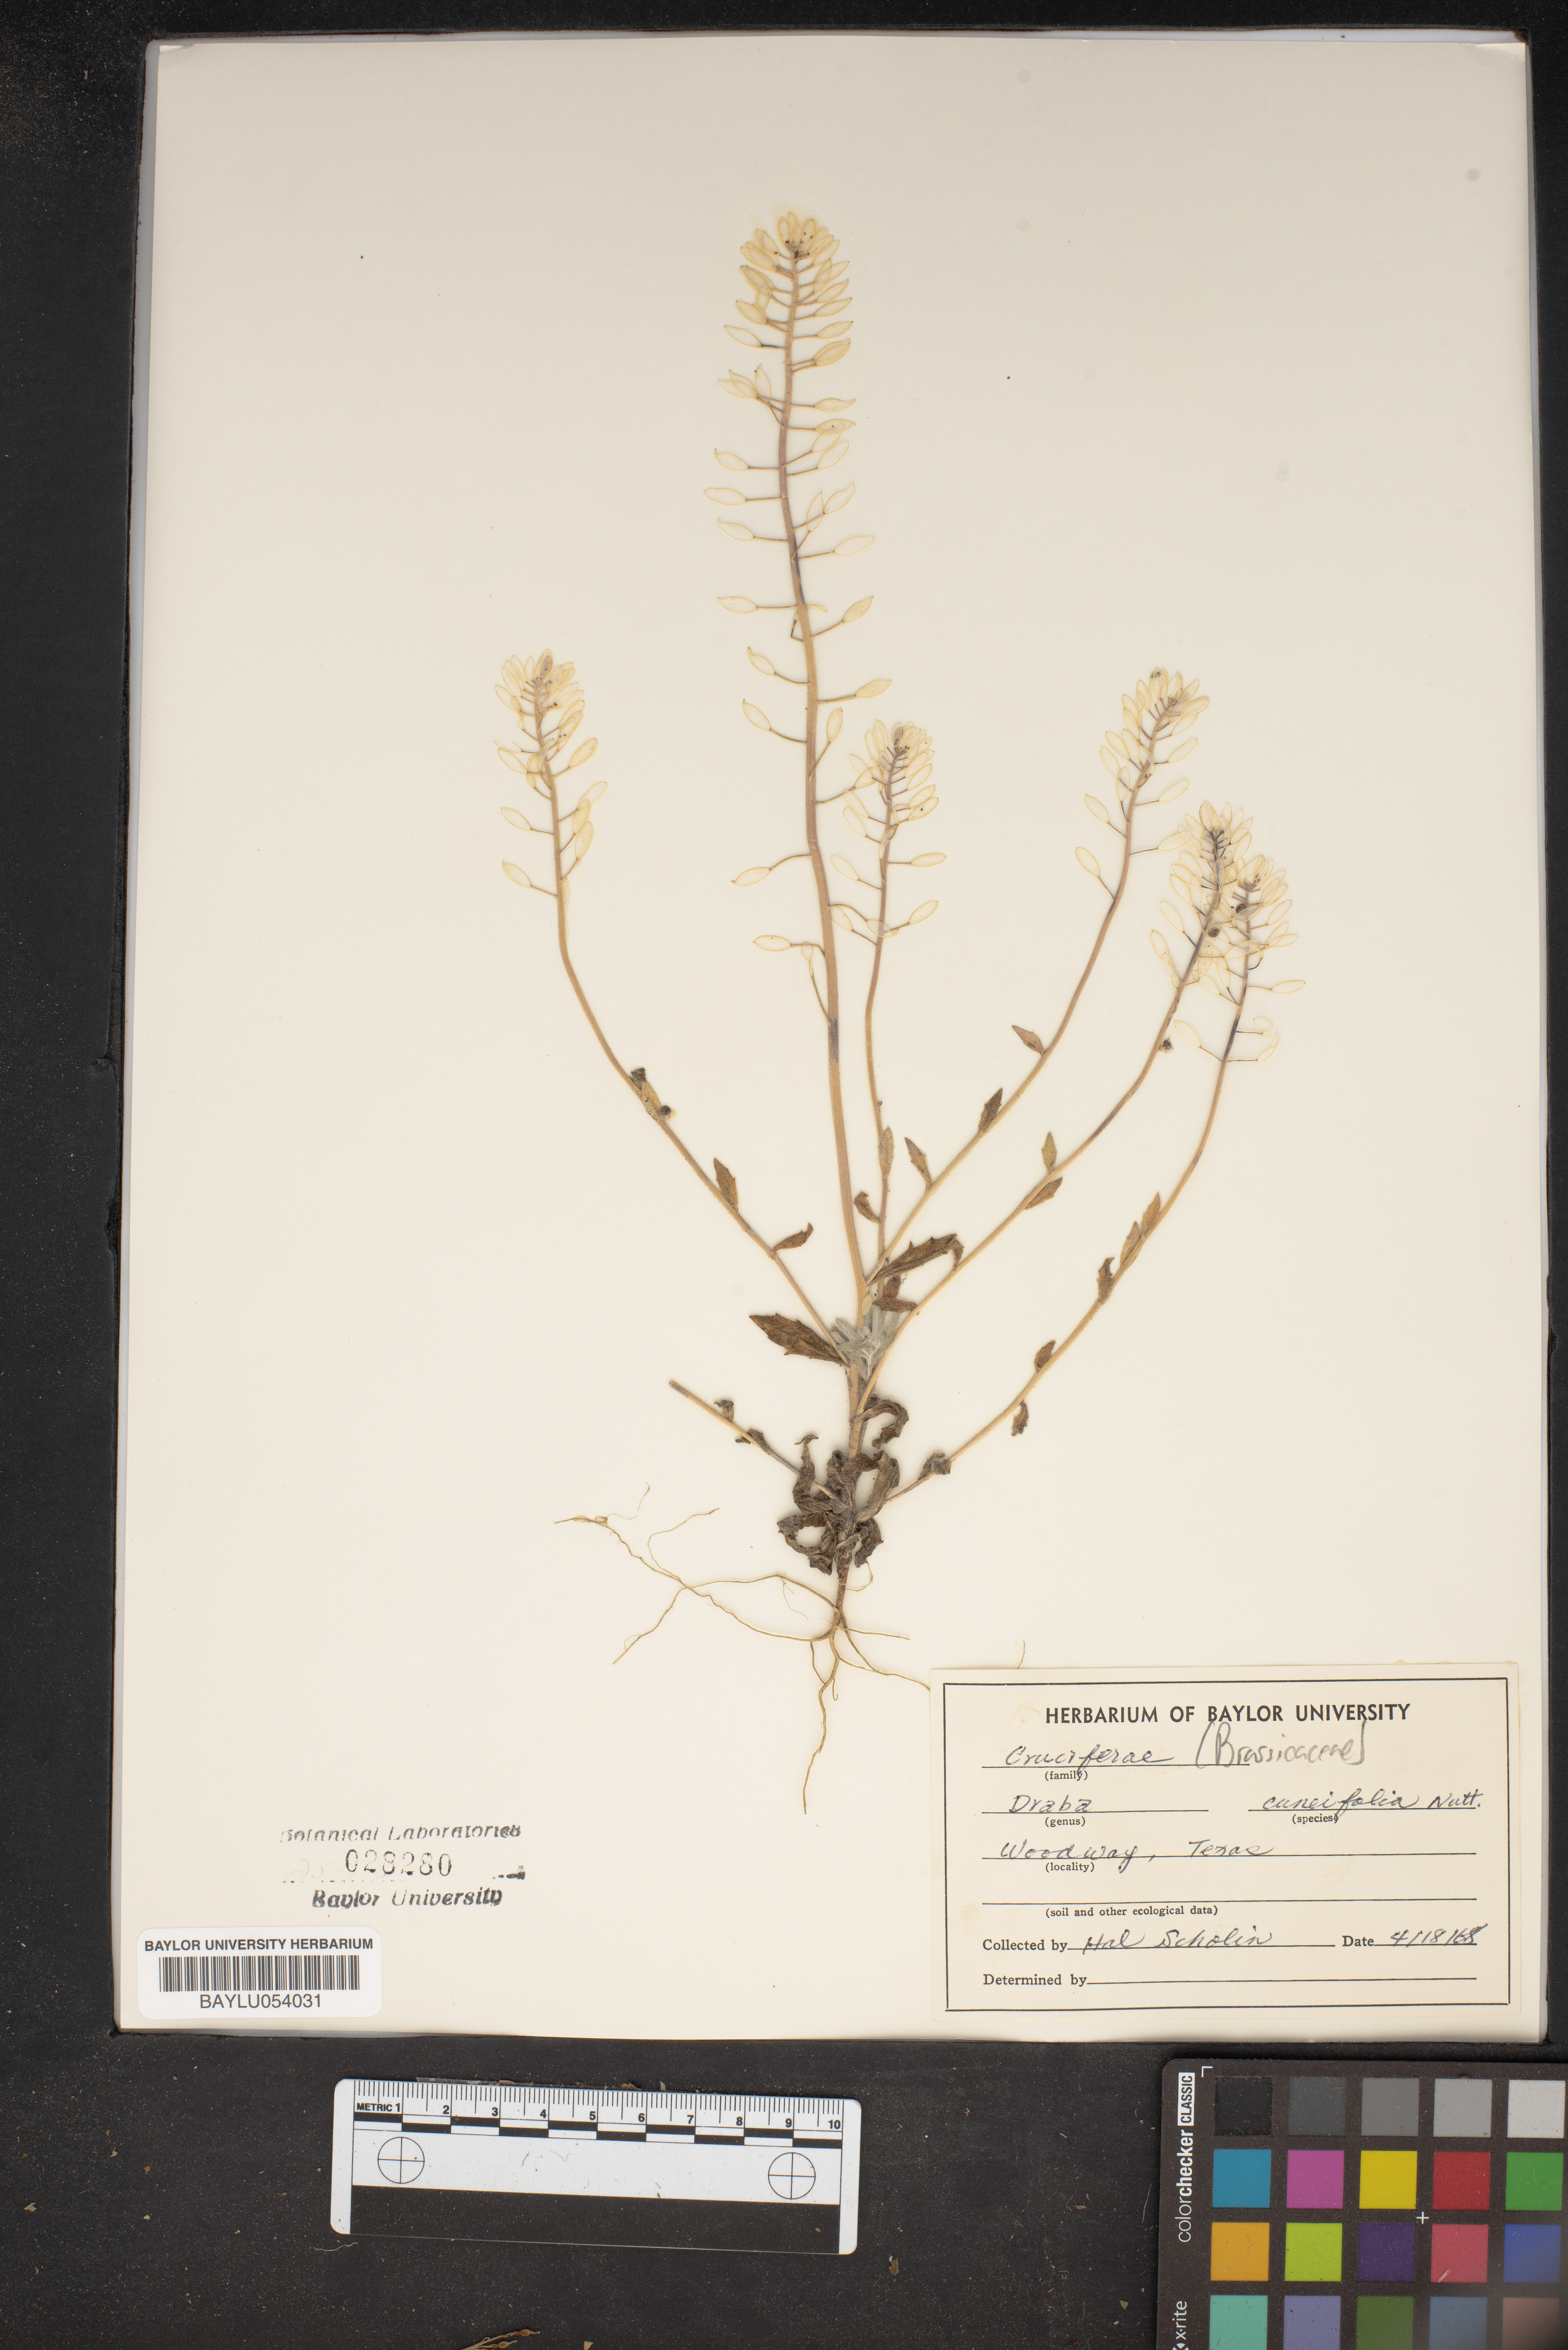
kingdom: Plantae
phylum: Tracheophyta
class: Magnoliopsida
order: Brassicales
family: Brassicaceae
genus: Tomostima
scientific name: Tomostima cuneifolia
